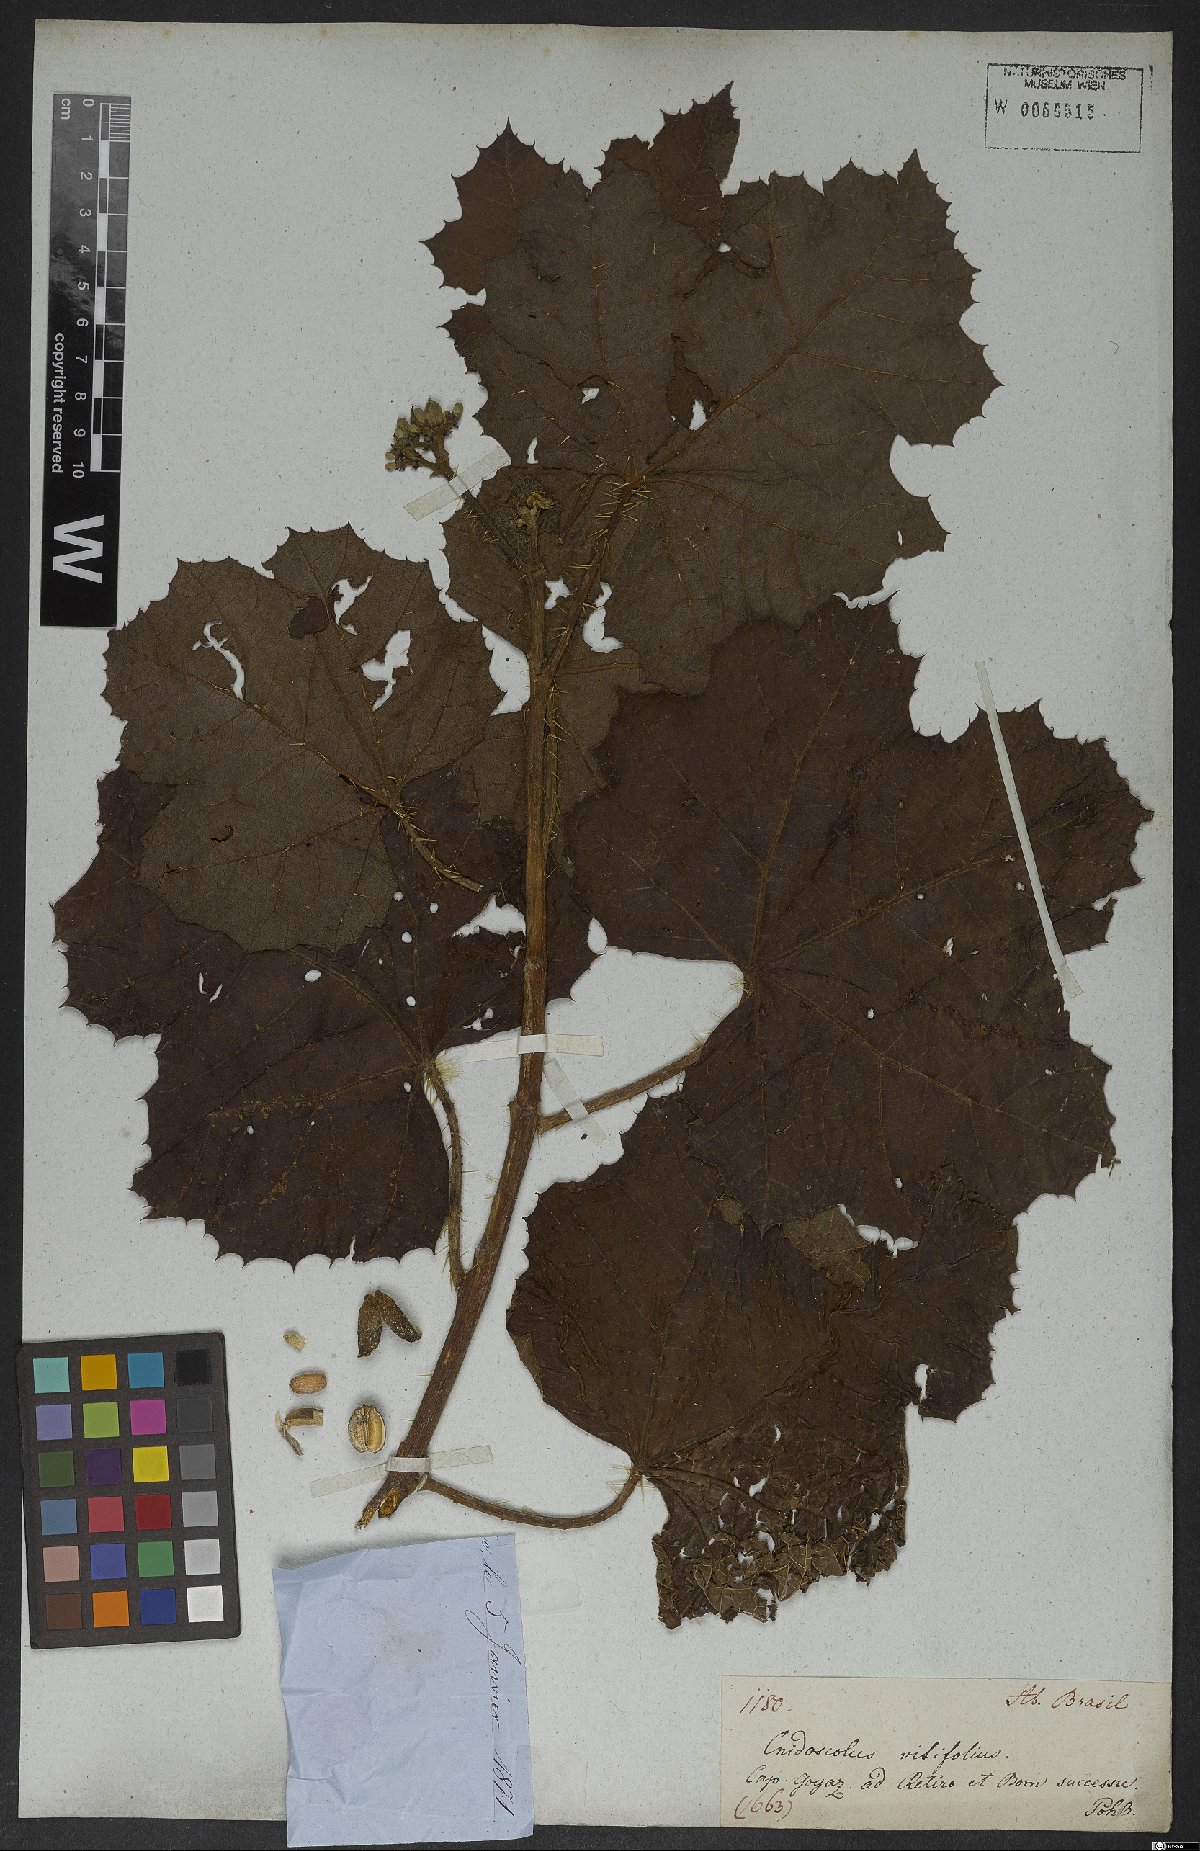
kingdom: Plantae
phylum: Tracheophyta
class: Magnoliopsida
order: Malpighiales
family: Euphorbiaceae
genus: Cnidoscolus
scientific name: Cnidoscolus vitifolius
